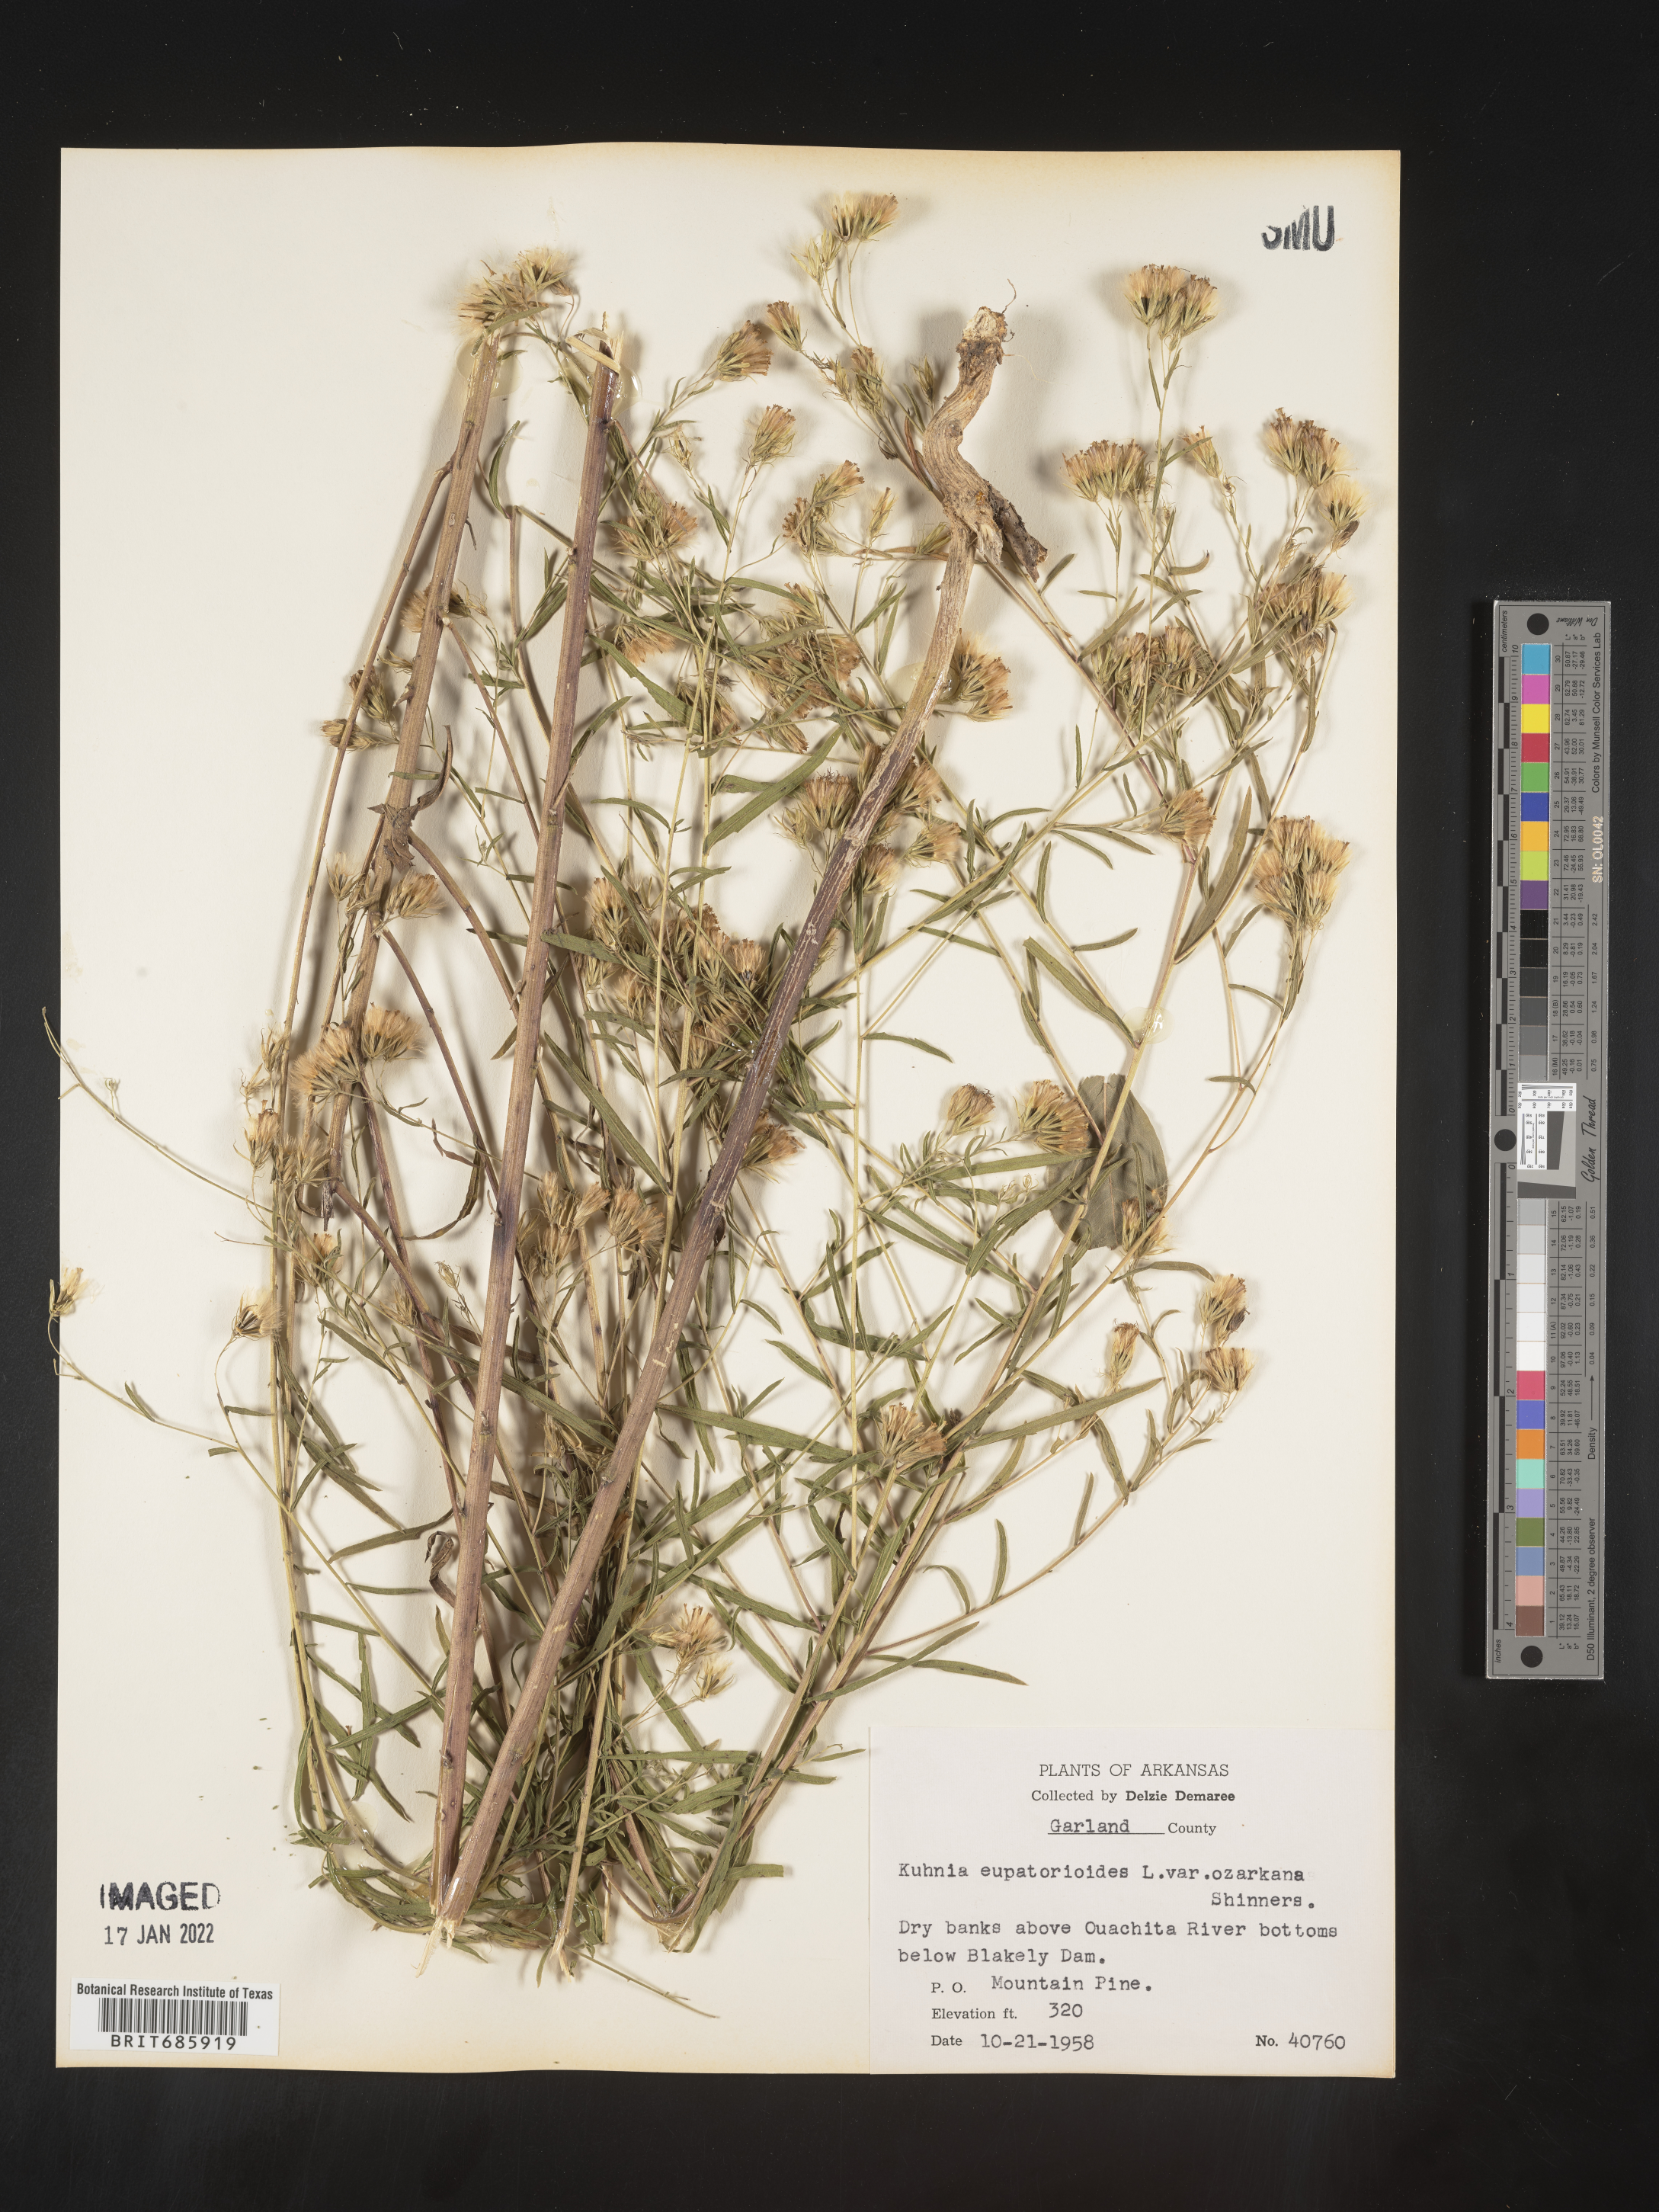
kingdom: Plantae
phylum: Tracheophyta
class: Magnoliopsida
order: Asterales
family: Asteraceae
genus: Brickellia
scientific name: Brickellia ozarkana
